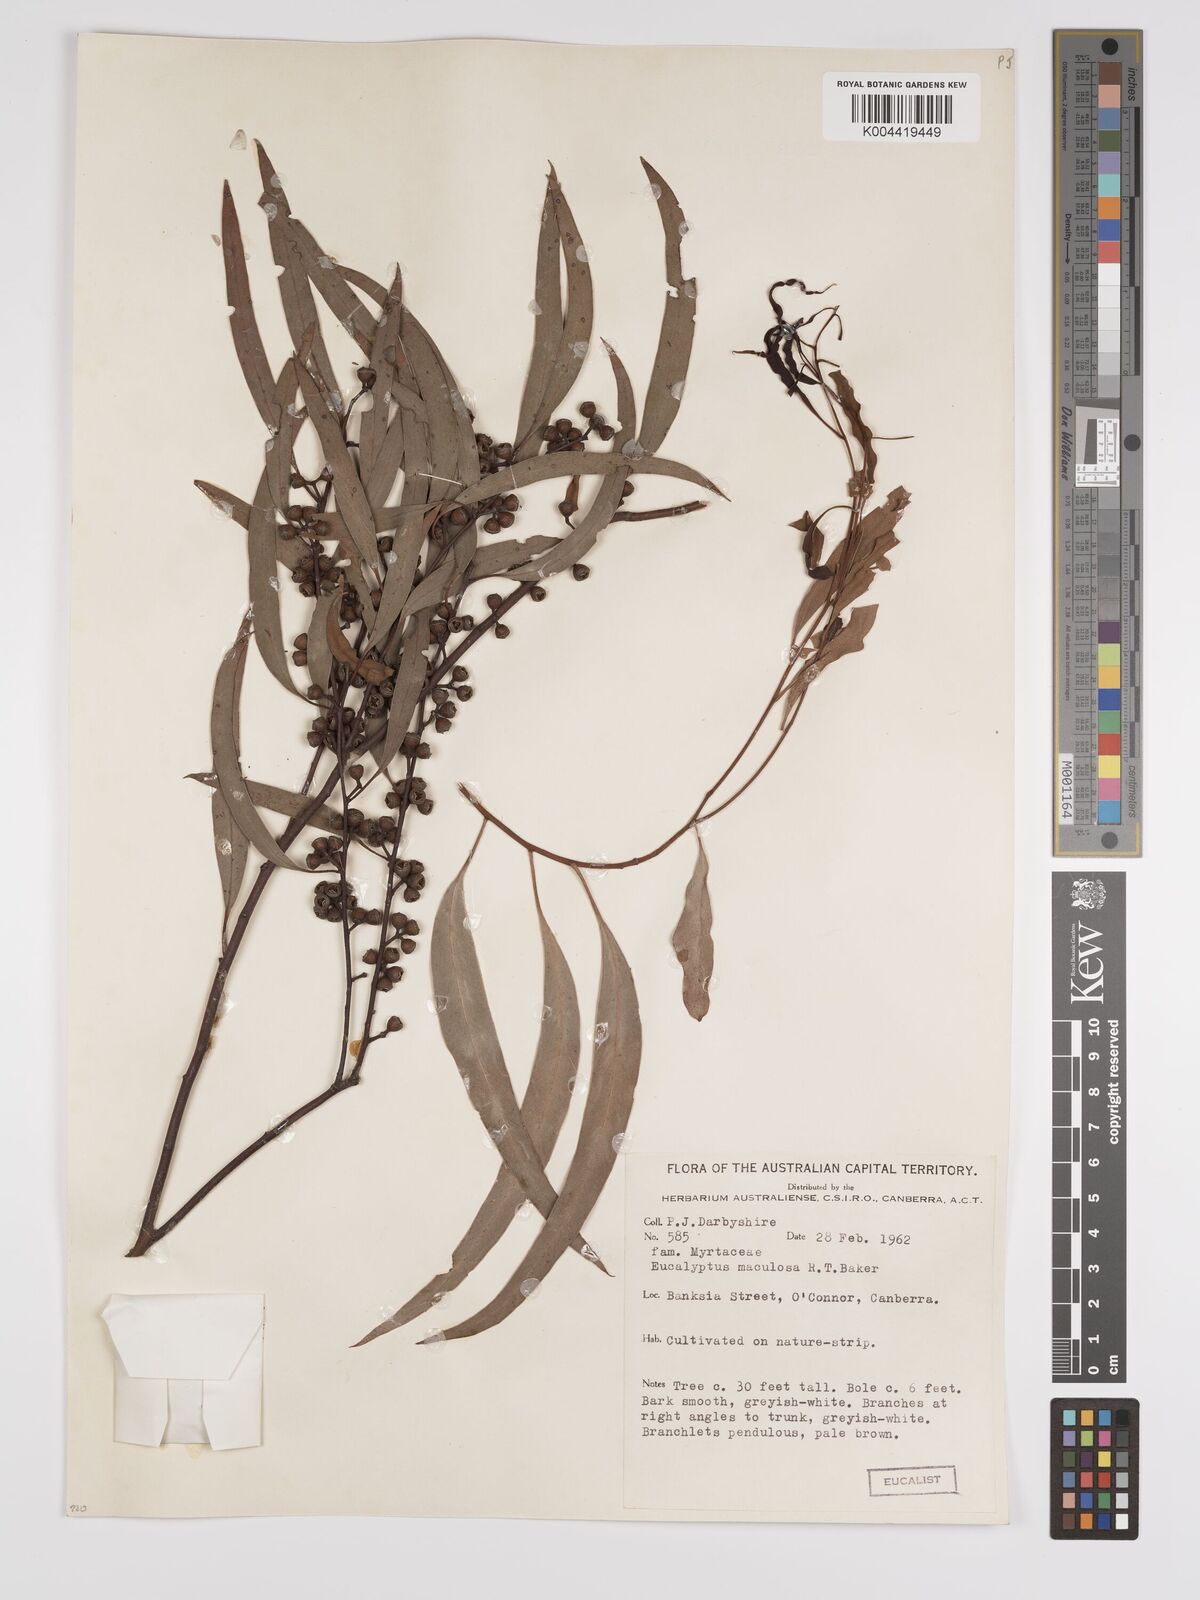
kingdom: Plantae
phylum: Tracheophyta
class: Magnoliopsida
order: Myrtales
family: Myrtaceae
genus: Eucalyptus
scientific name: Eucalyptus mannifera
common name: Manna gum
